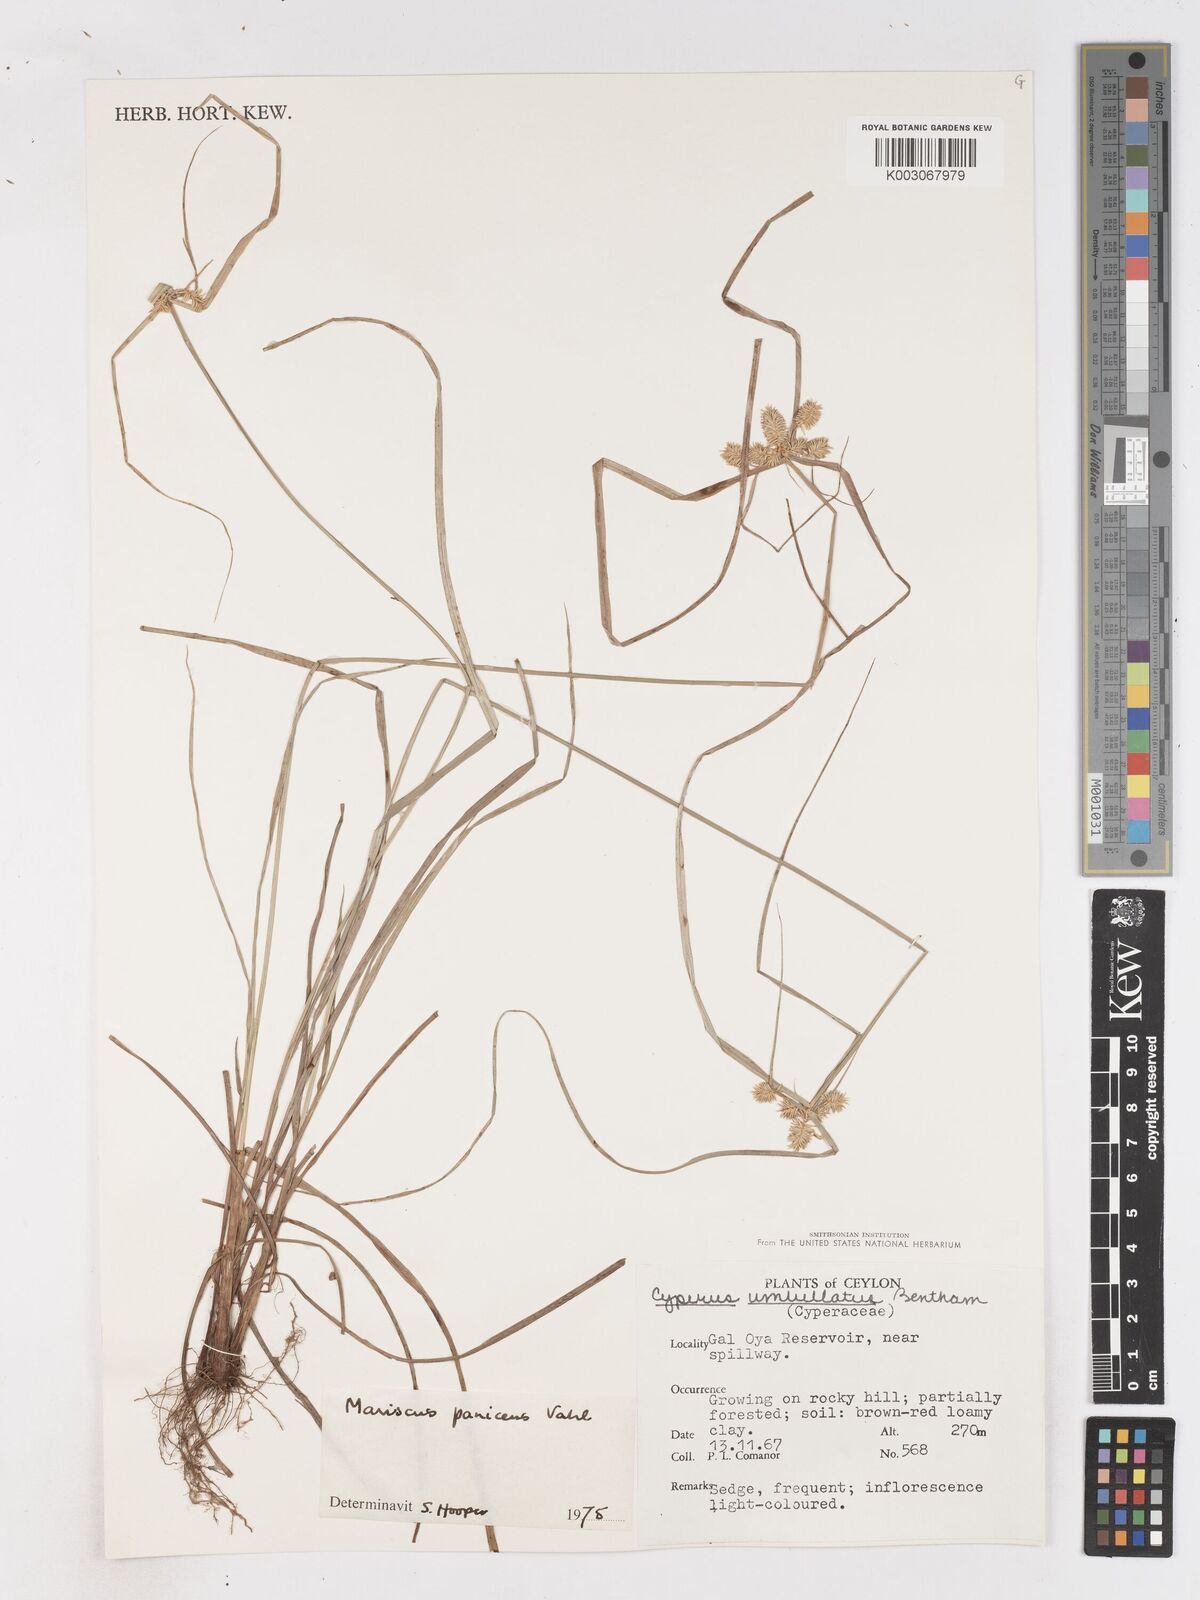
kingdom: Plantae
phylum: Tracheophyta
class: Liliopsida
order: Poales
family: Cyperaceae
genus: Cyperus
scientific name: Cyperus paniceus
